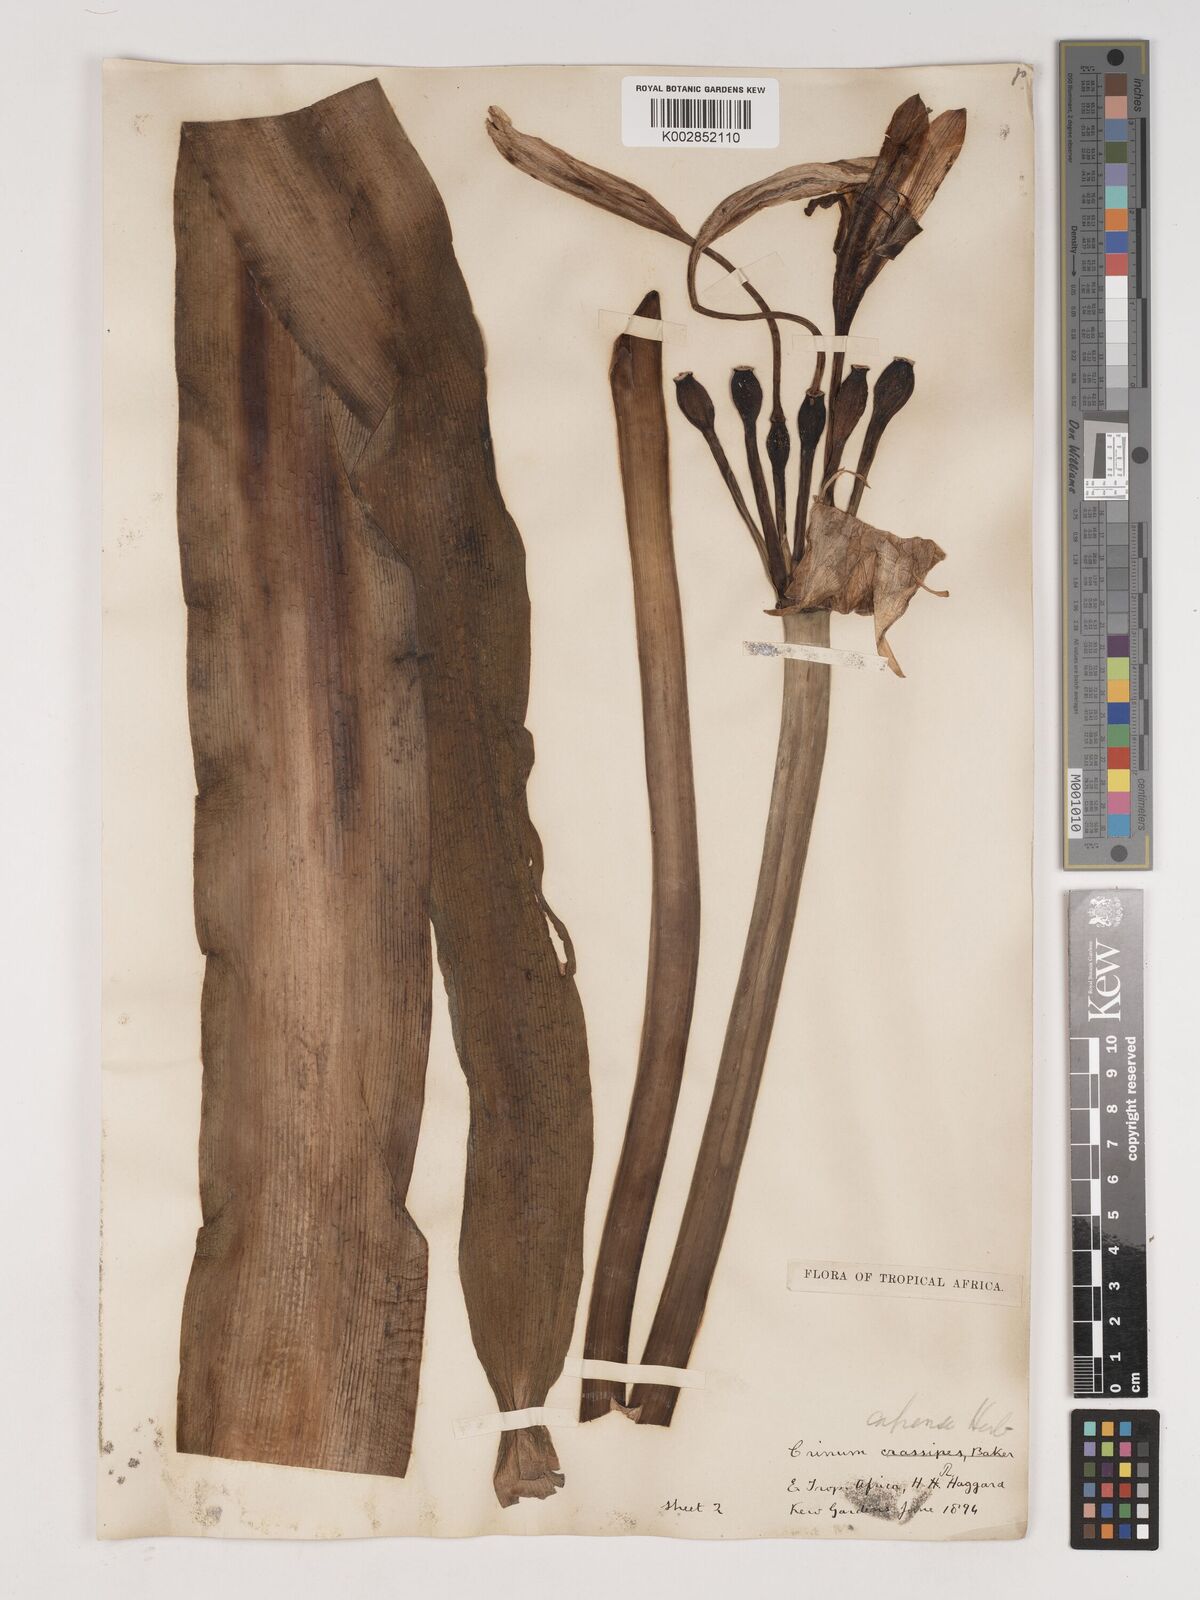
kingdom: Plantae
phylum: Tracheophyta
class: Liliopsida
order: Asparagales
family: Amaryllidaceae
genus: Crinum
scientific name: Crinum bulbispermum
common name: Hardy swamplily
